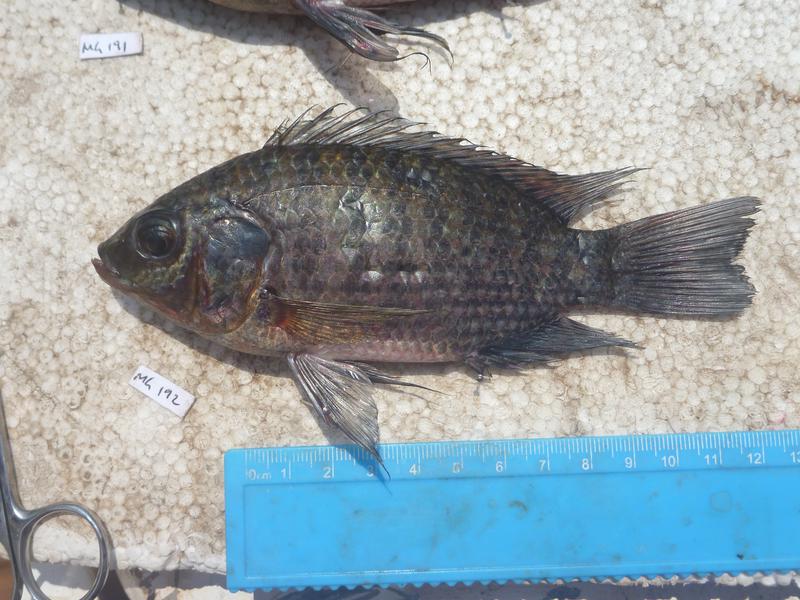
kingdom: Animalia
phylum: Chordata
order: Perciformes
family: Cichlidae
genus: Oreochromis
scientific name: Oreochromis leucostictus
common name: Blue spotted tilapia
